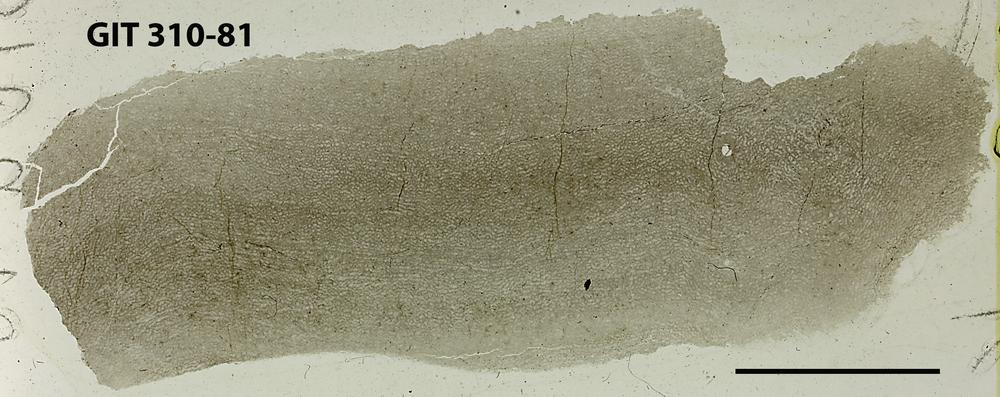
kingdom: Animalia
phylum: Porifera
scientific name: Porifera
